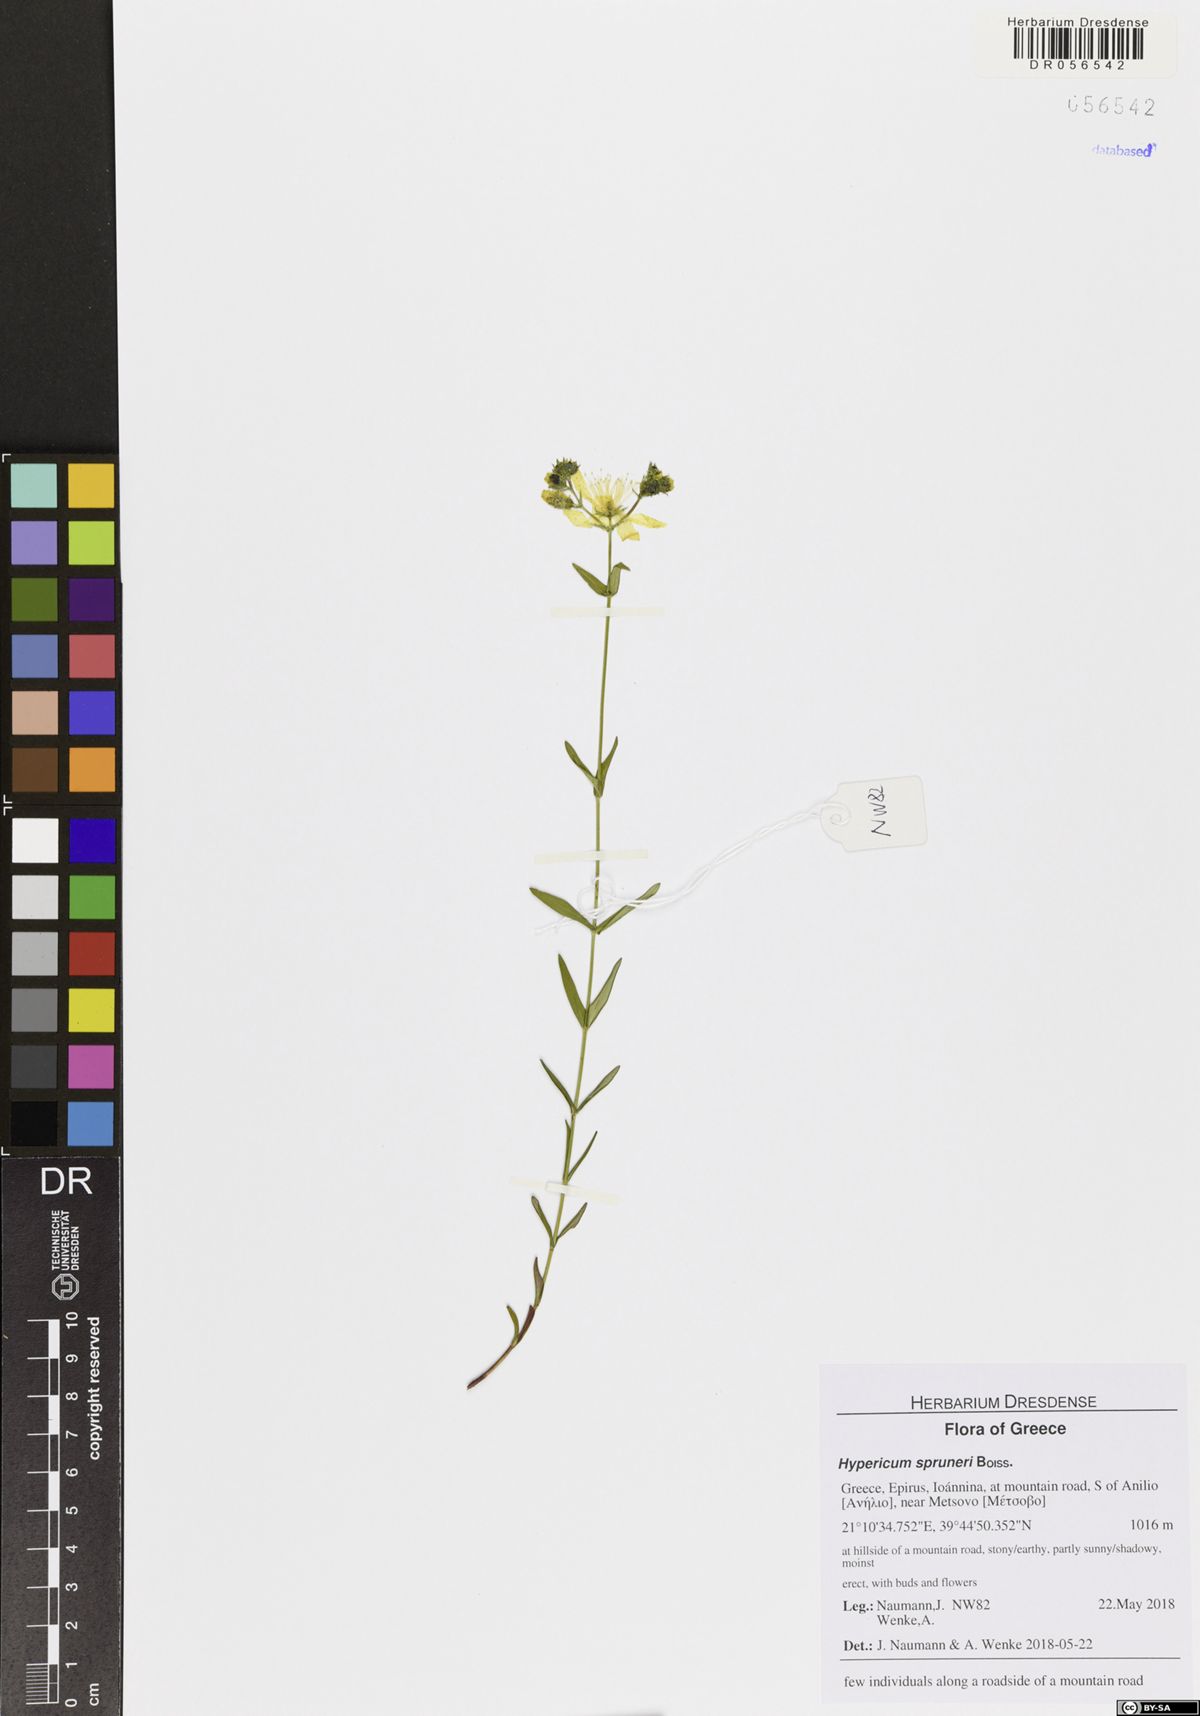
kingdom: Plantae
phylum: Tracheophyta
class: Magnoliopsida
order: Malpighiales
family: Hypericaceae
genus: Hypericum
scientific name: Hypericum spruneri
